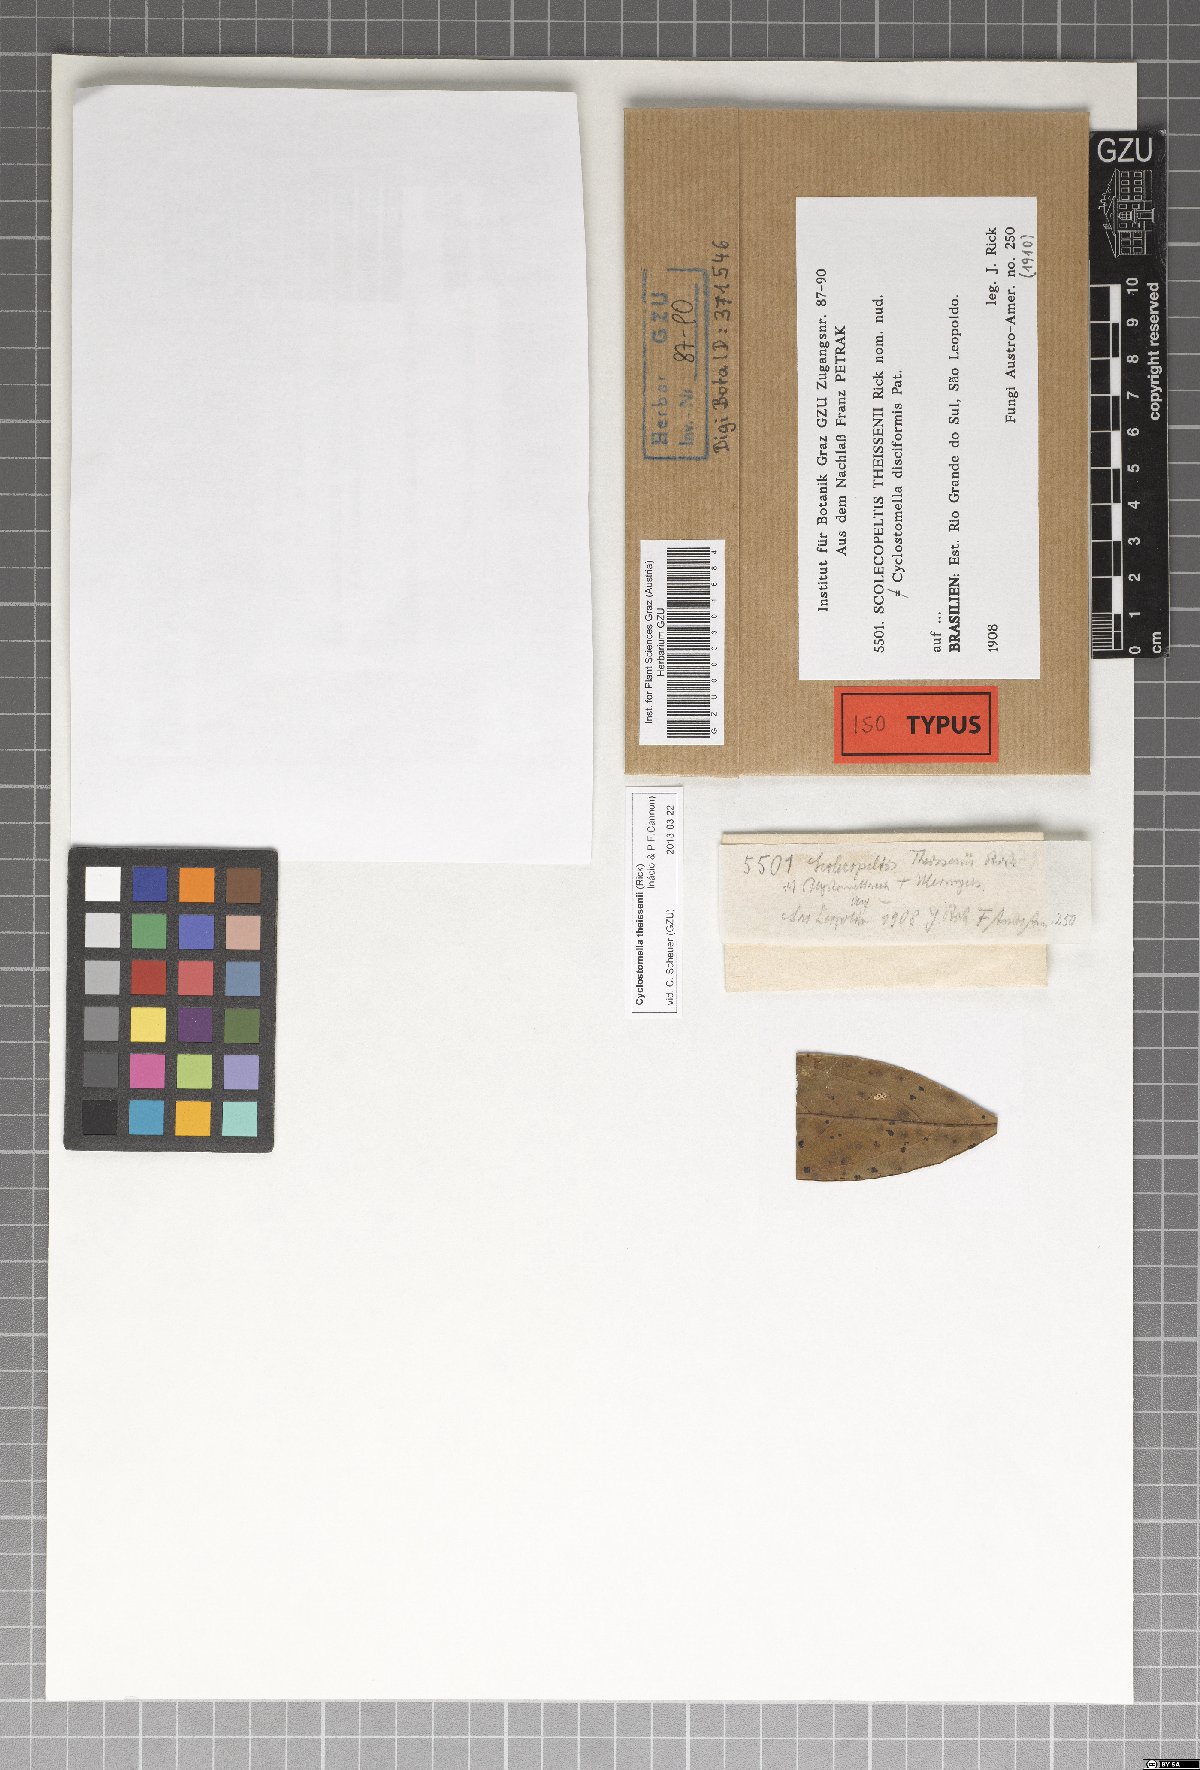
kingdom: Fungi
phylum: Ascomycota
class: Dothideomycetes
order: Asterinales
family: Parmulariaceae
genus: Cyclostomella
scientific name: Cyclostomella theissenii
